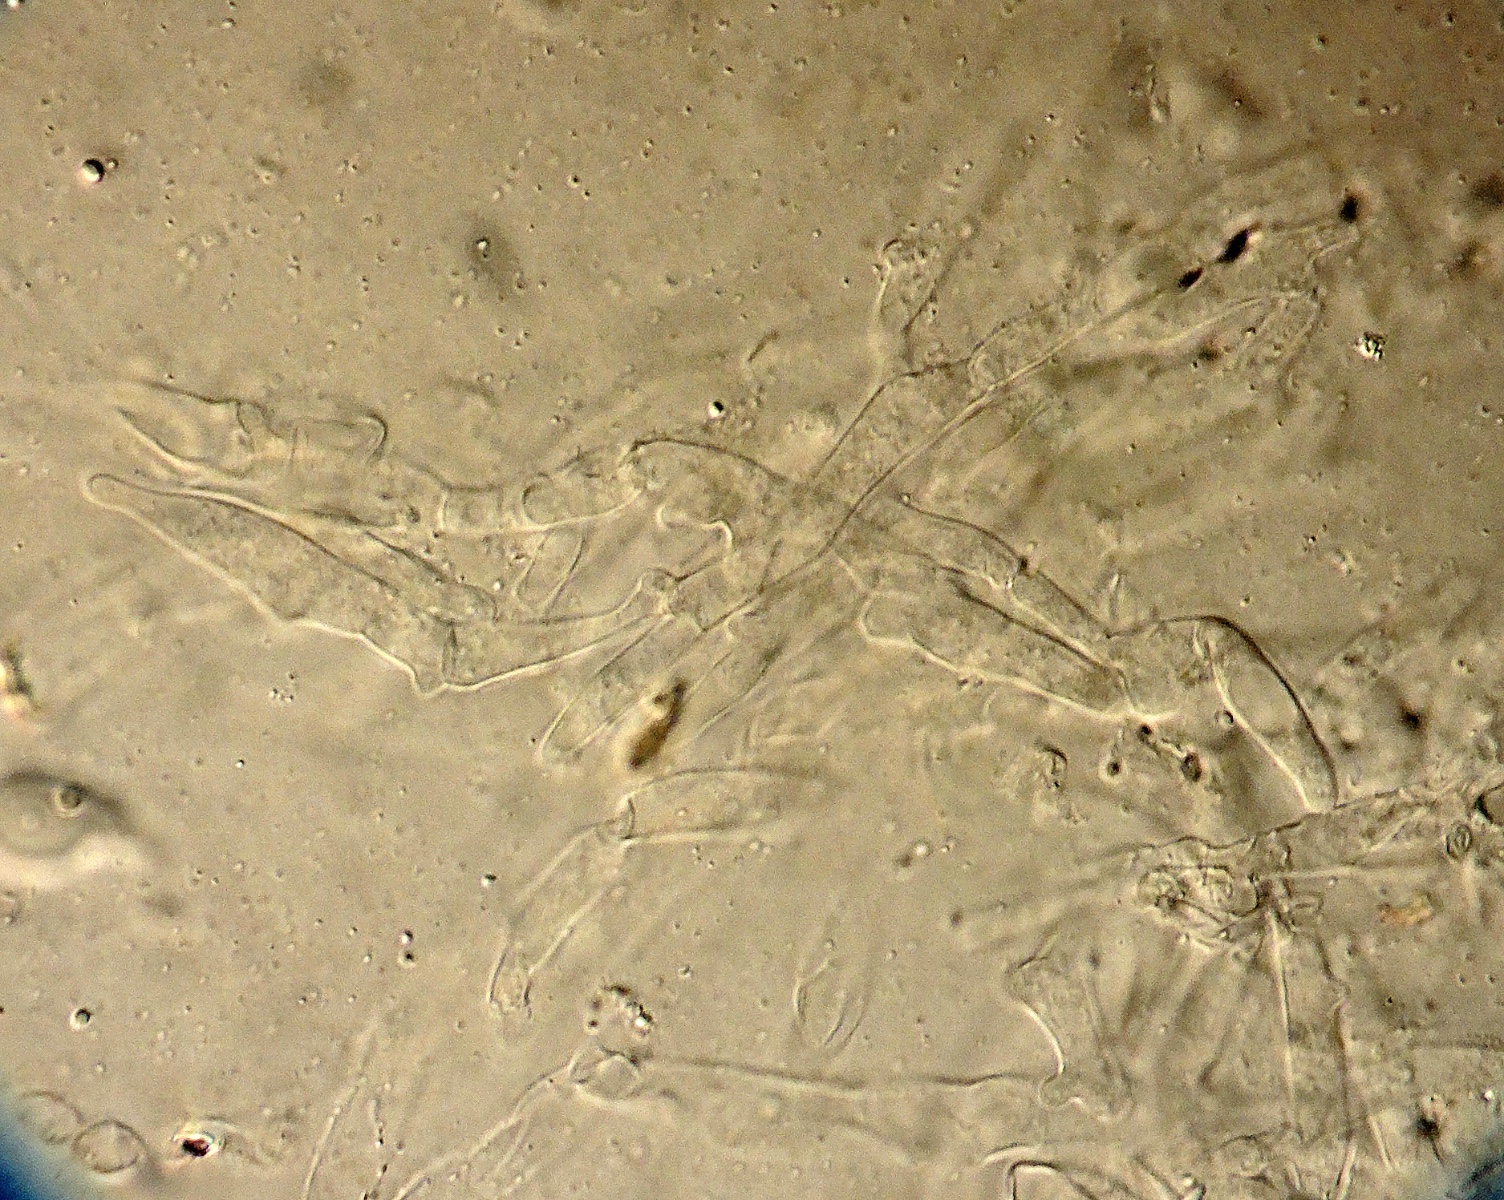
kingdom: Fungi
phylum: Basidiomycota
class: Agaricomycetes
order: Agaricales
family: Psathyrellaceae
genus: Coprinopsis
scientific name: Coprinopsis phlyctidospora
